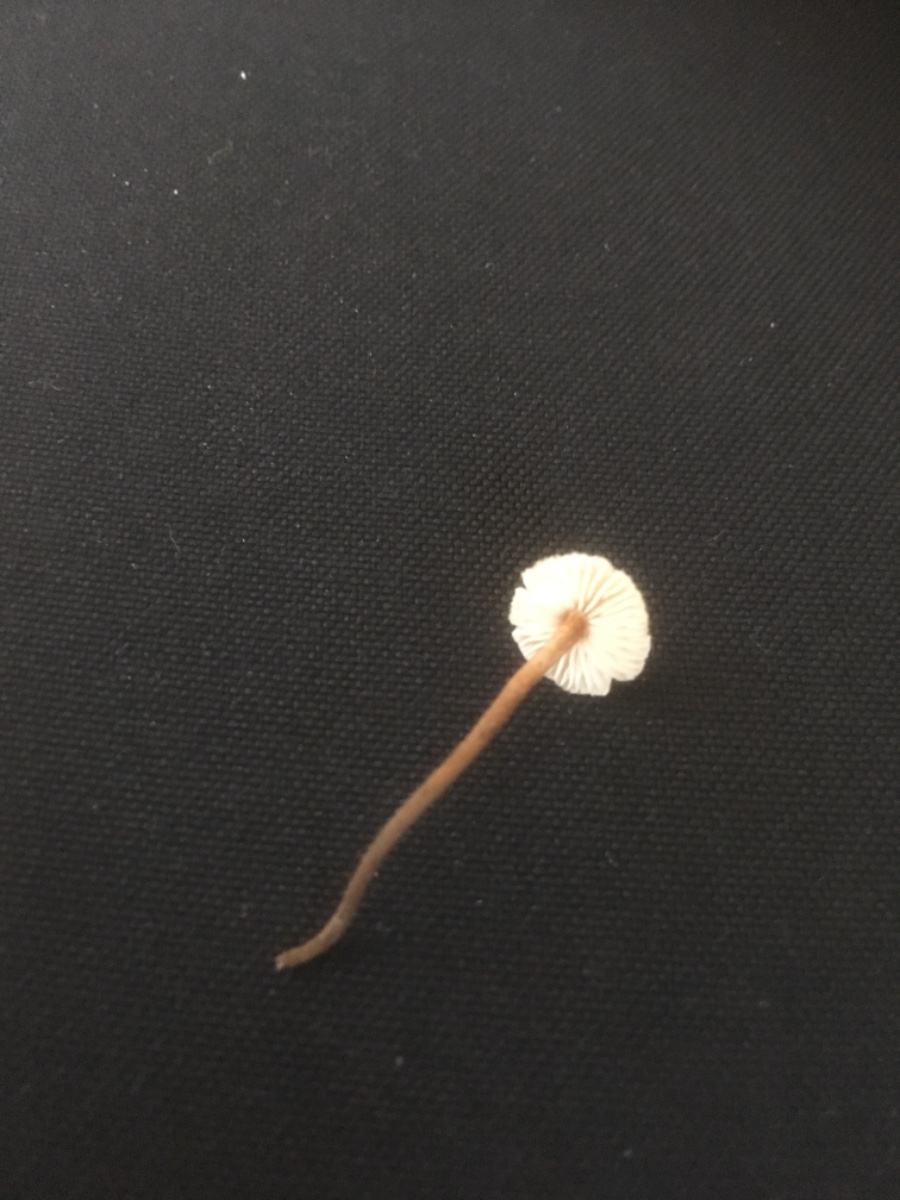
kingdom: Fungi
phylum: Basidiomycota
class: Agaricomycetes
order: Agaricales
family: Marasmiaceae
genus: Crinipellis
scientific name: Crinipellis scabella
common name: børstefod
